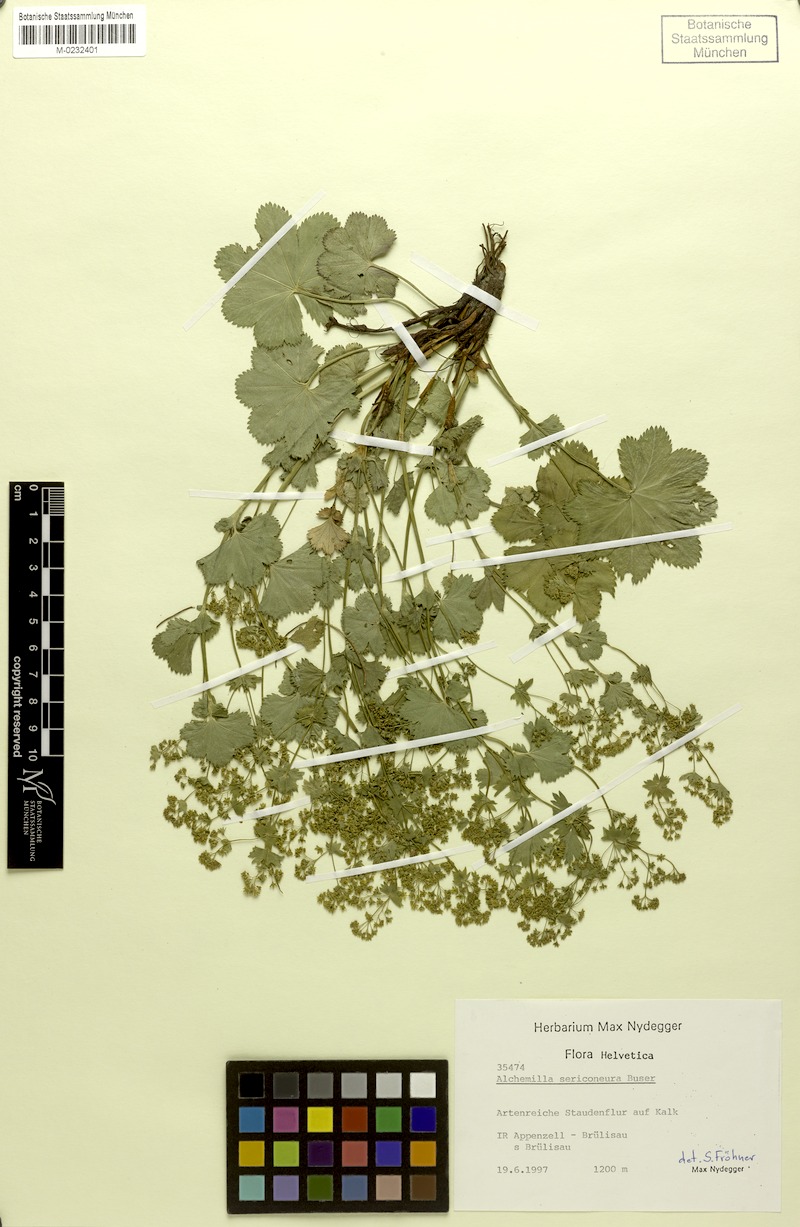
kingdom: Plantae
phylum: Tracheophyta
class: Magnoliopsida
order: Rosales
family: Rosaceae
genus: Alchemilla
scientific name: Alchemilla sericoneura
